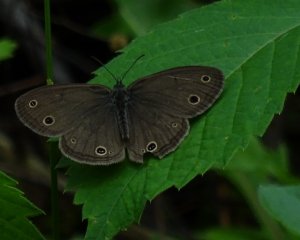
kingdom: Animalia
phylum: Arthropoda
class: Insecta
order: Lepidoptera
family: Nymphalidae
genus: Euptychia
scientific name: Euptychia cymela
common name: Little Wood Satyr
